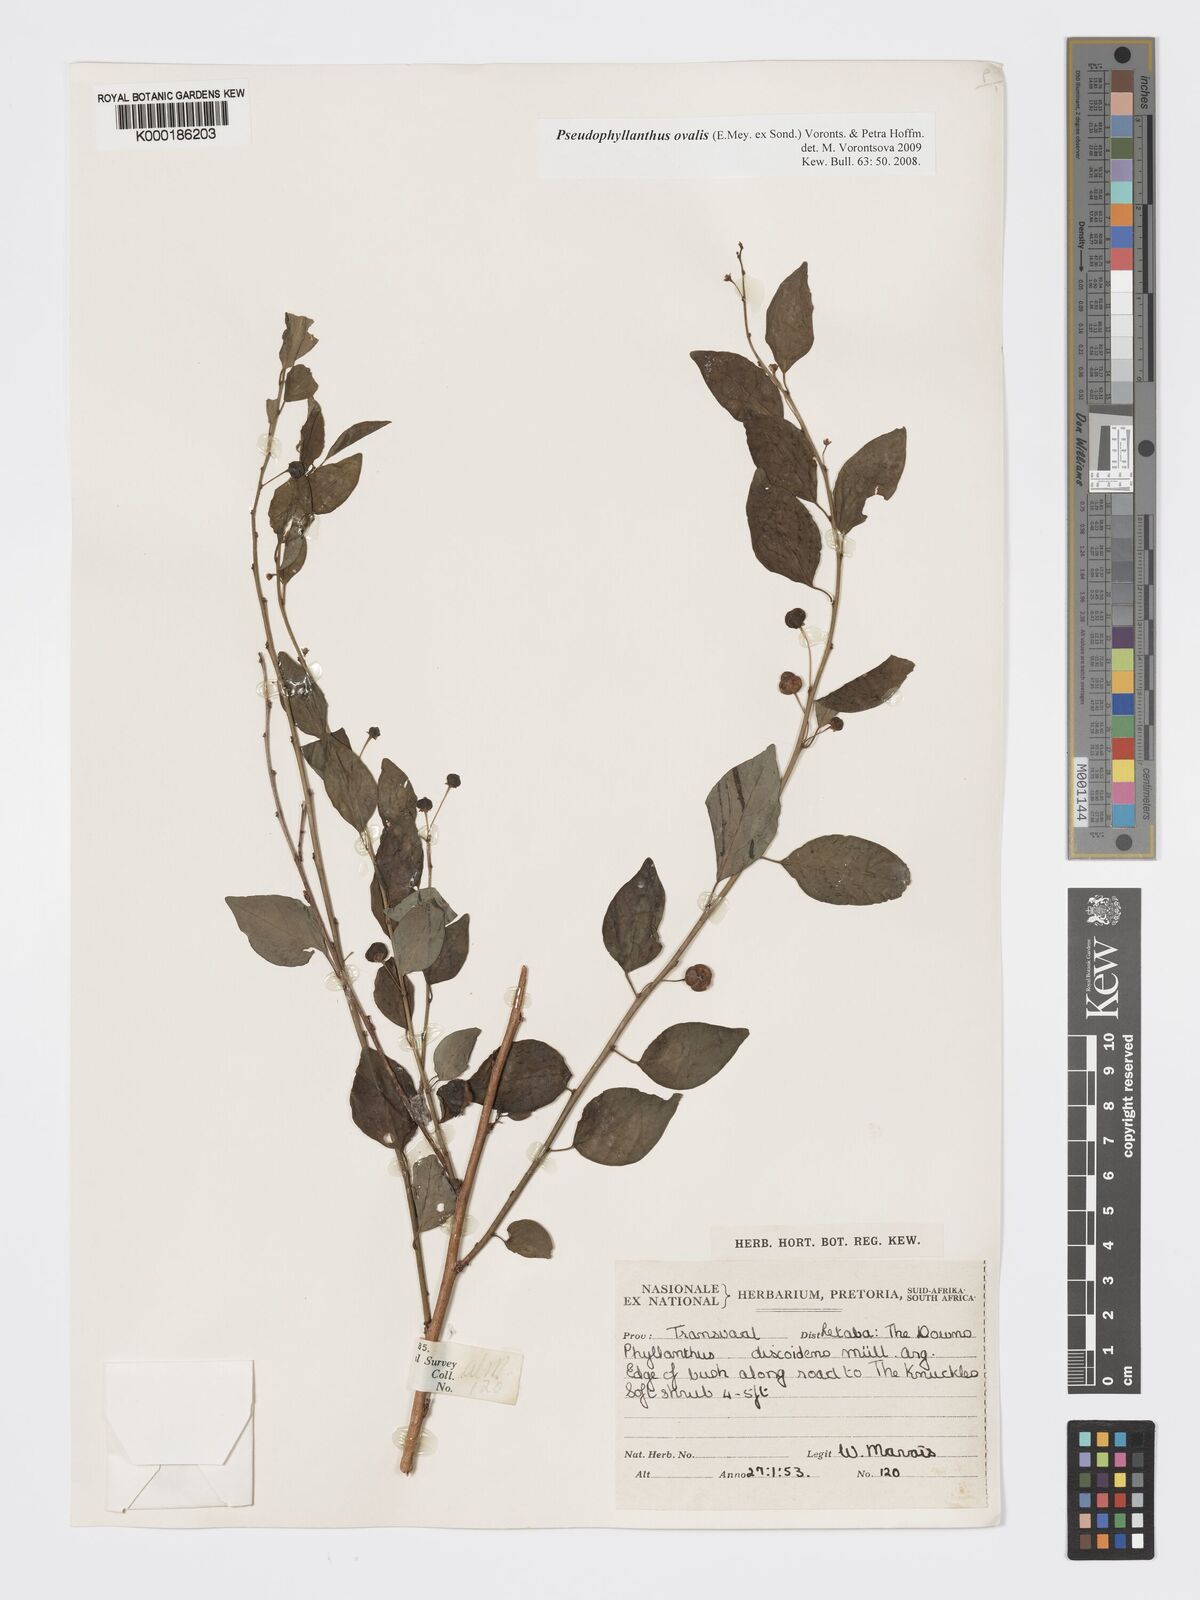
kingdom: Plantae
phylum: Tracheophyta
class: Magnoliopsida
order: Malpighiales
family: Phyllanthaceae
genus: Pseudophyllanthus
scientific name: Pseudophyllanthus ovalis
